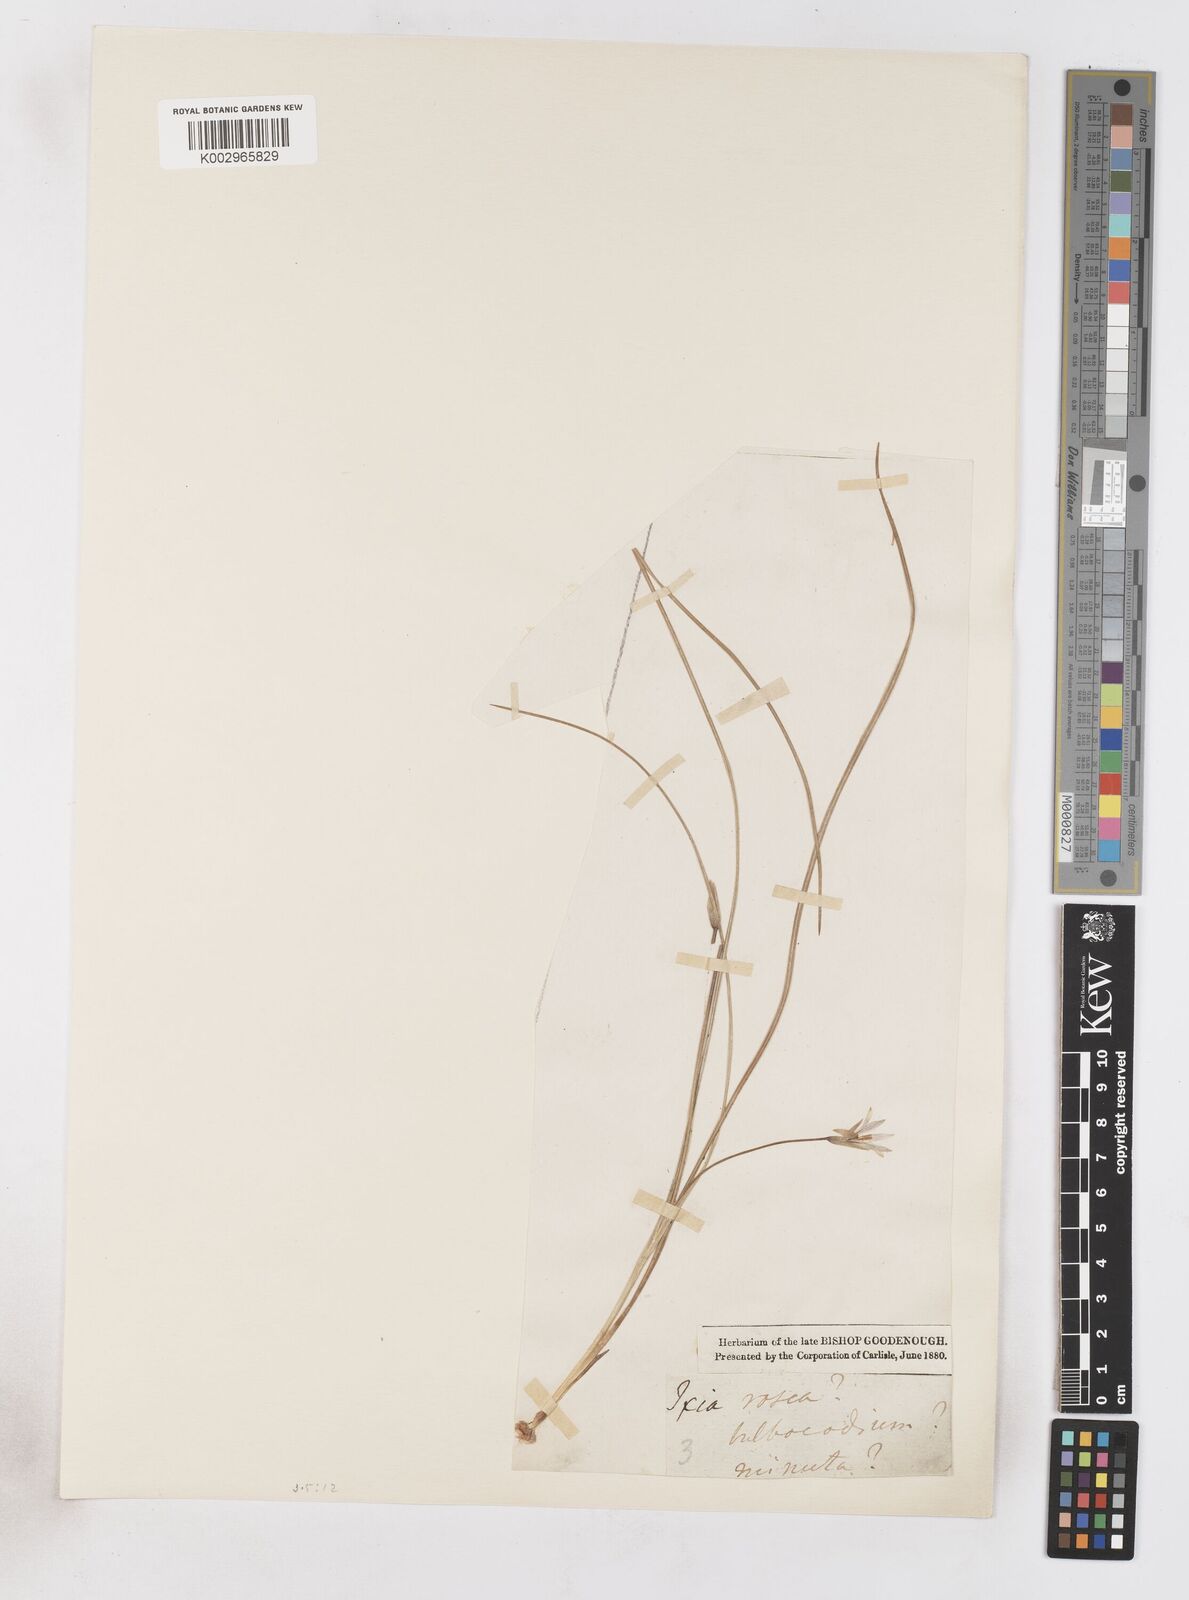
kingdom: Plantae
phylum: Tracheophyta
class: Liliopsida
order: Asparagales
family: Iridaceae
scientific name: Iridaceae
